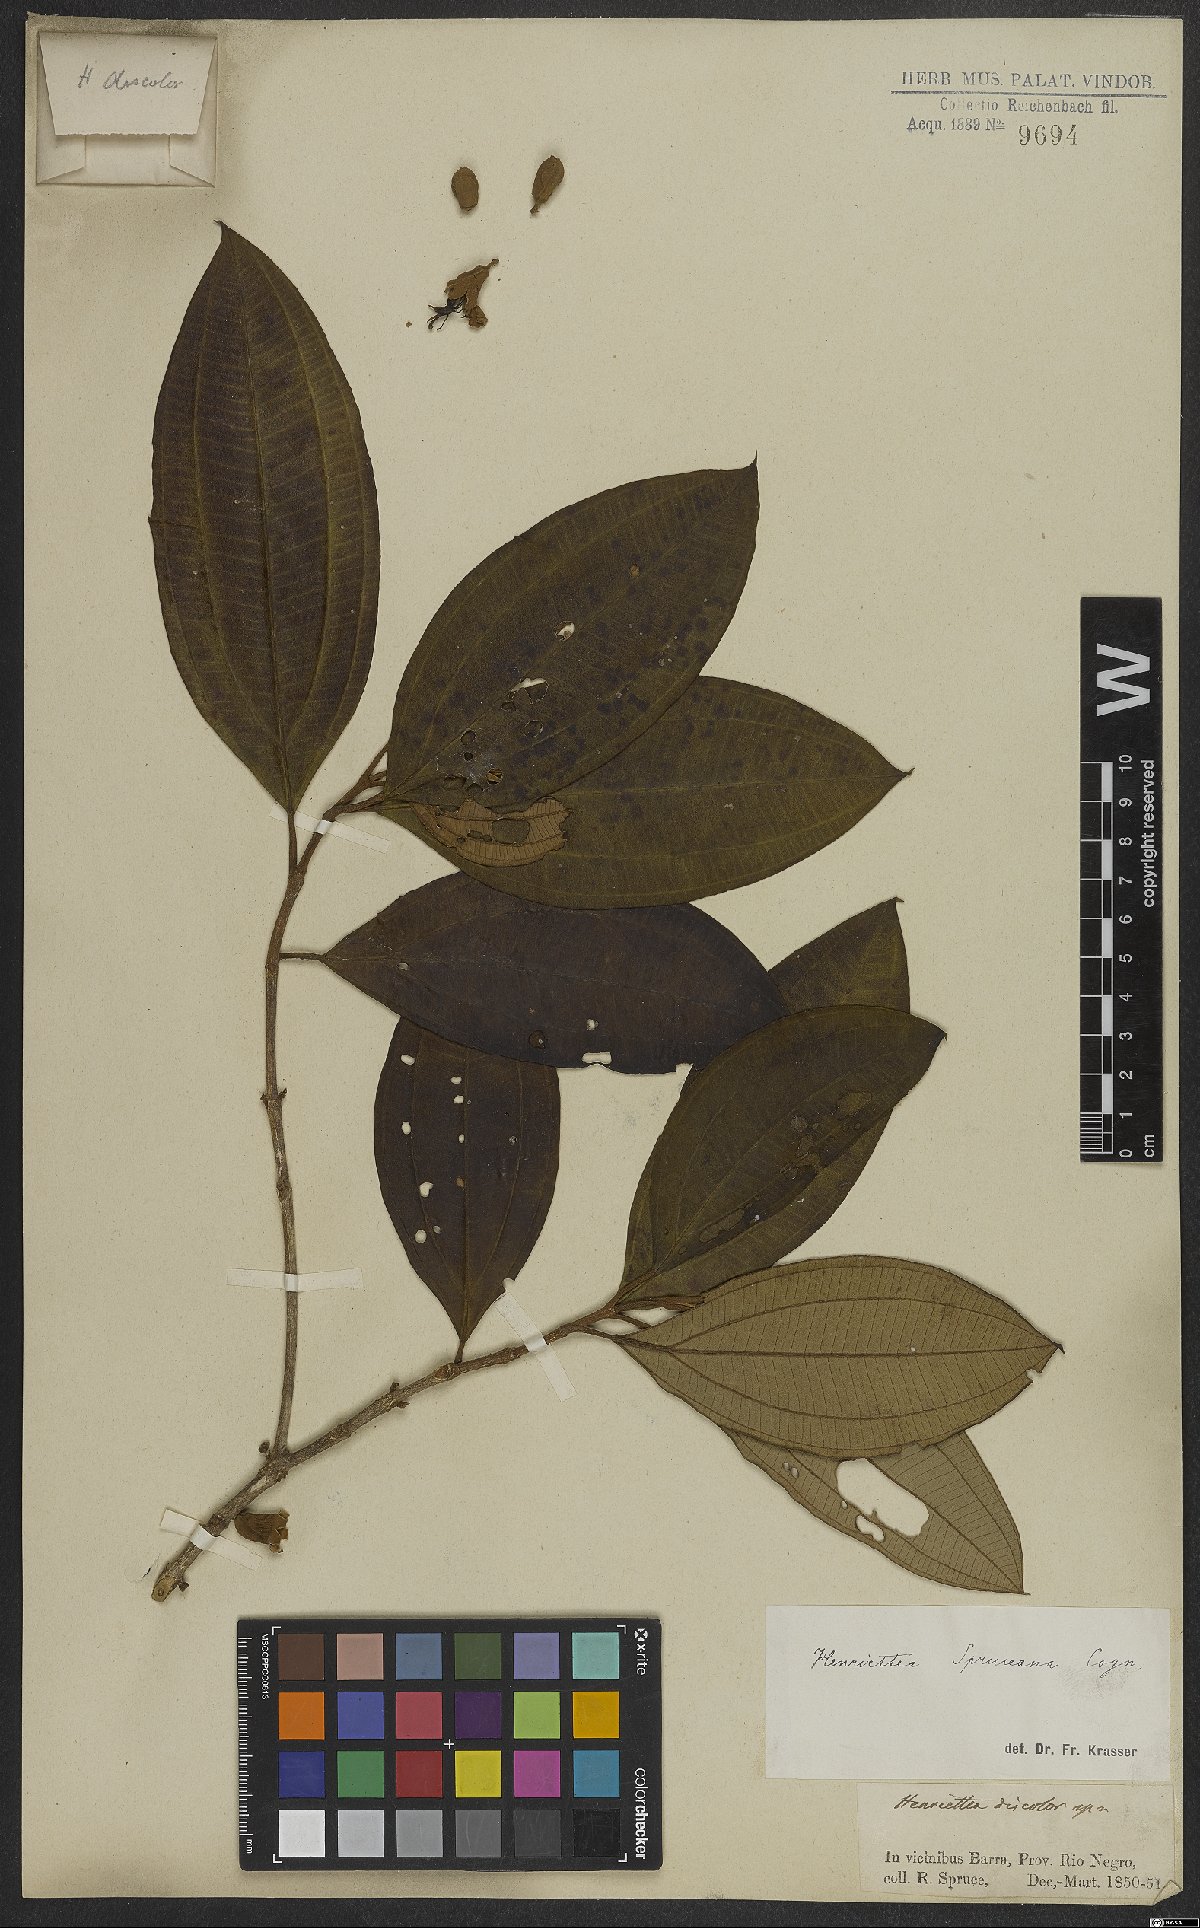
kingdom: Plantae
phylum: Tracheophyta
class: Magnoliopsida
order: Myrtales
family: Melastomataceae
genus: Henriettea
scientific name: Henriettea spruceana
